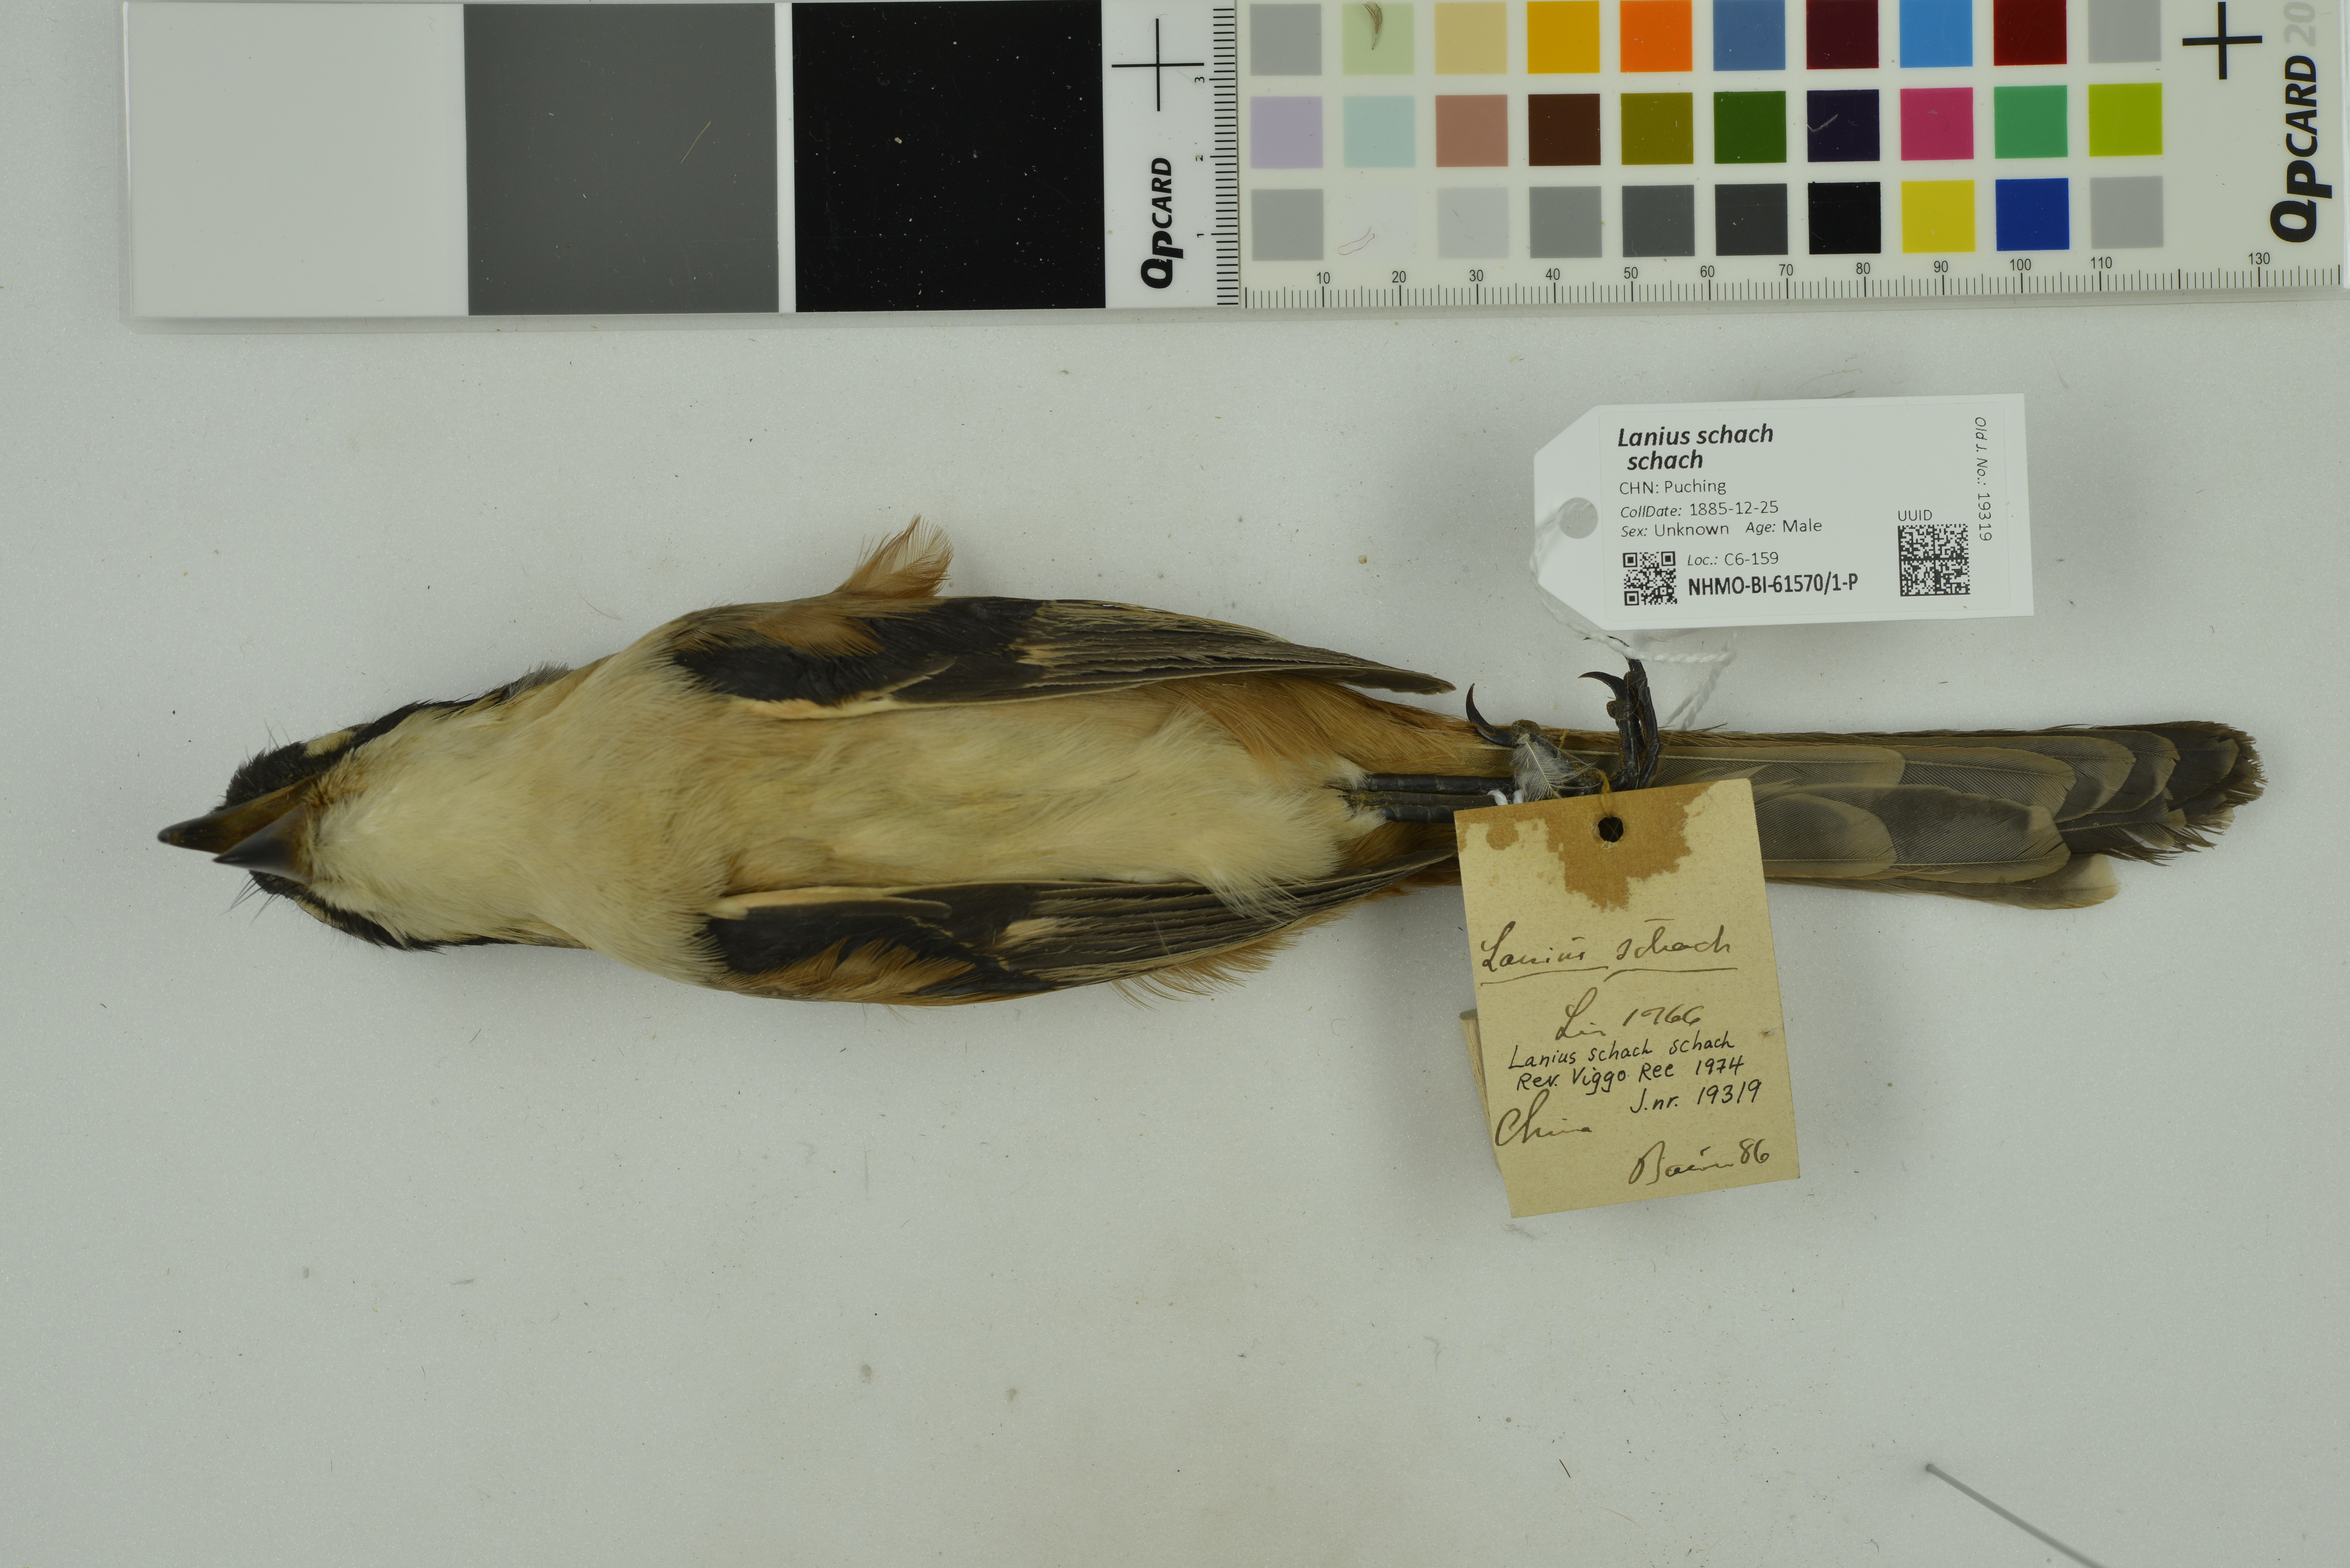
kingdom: Animalia
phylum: Chordata
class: Aves
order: Passeriformes
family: Laniidae
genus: Lanius
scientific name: Lanius schach
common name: Long-tailed shrike
